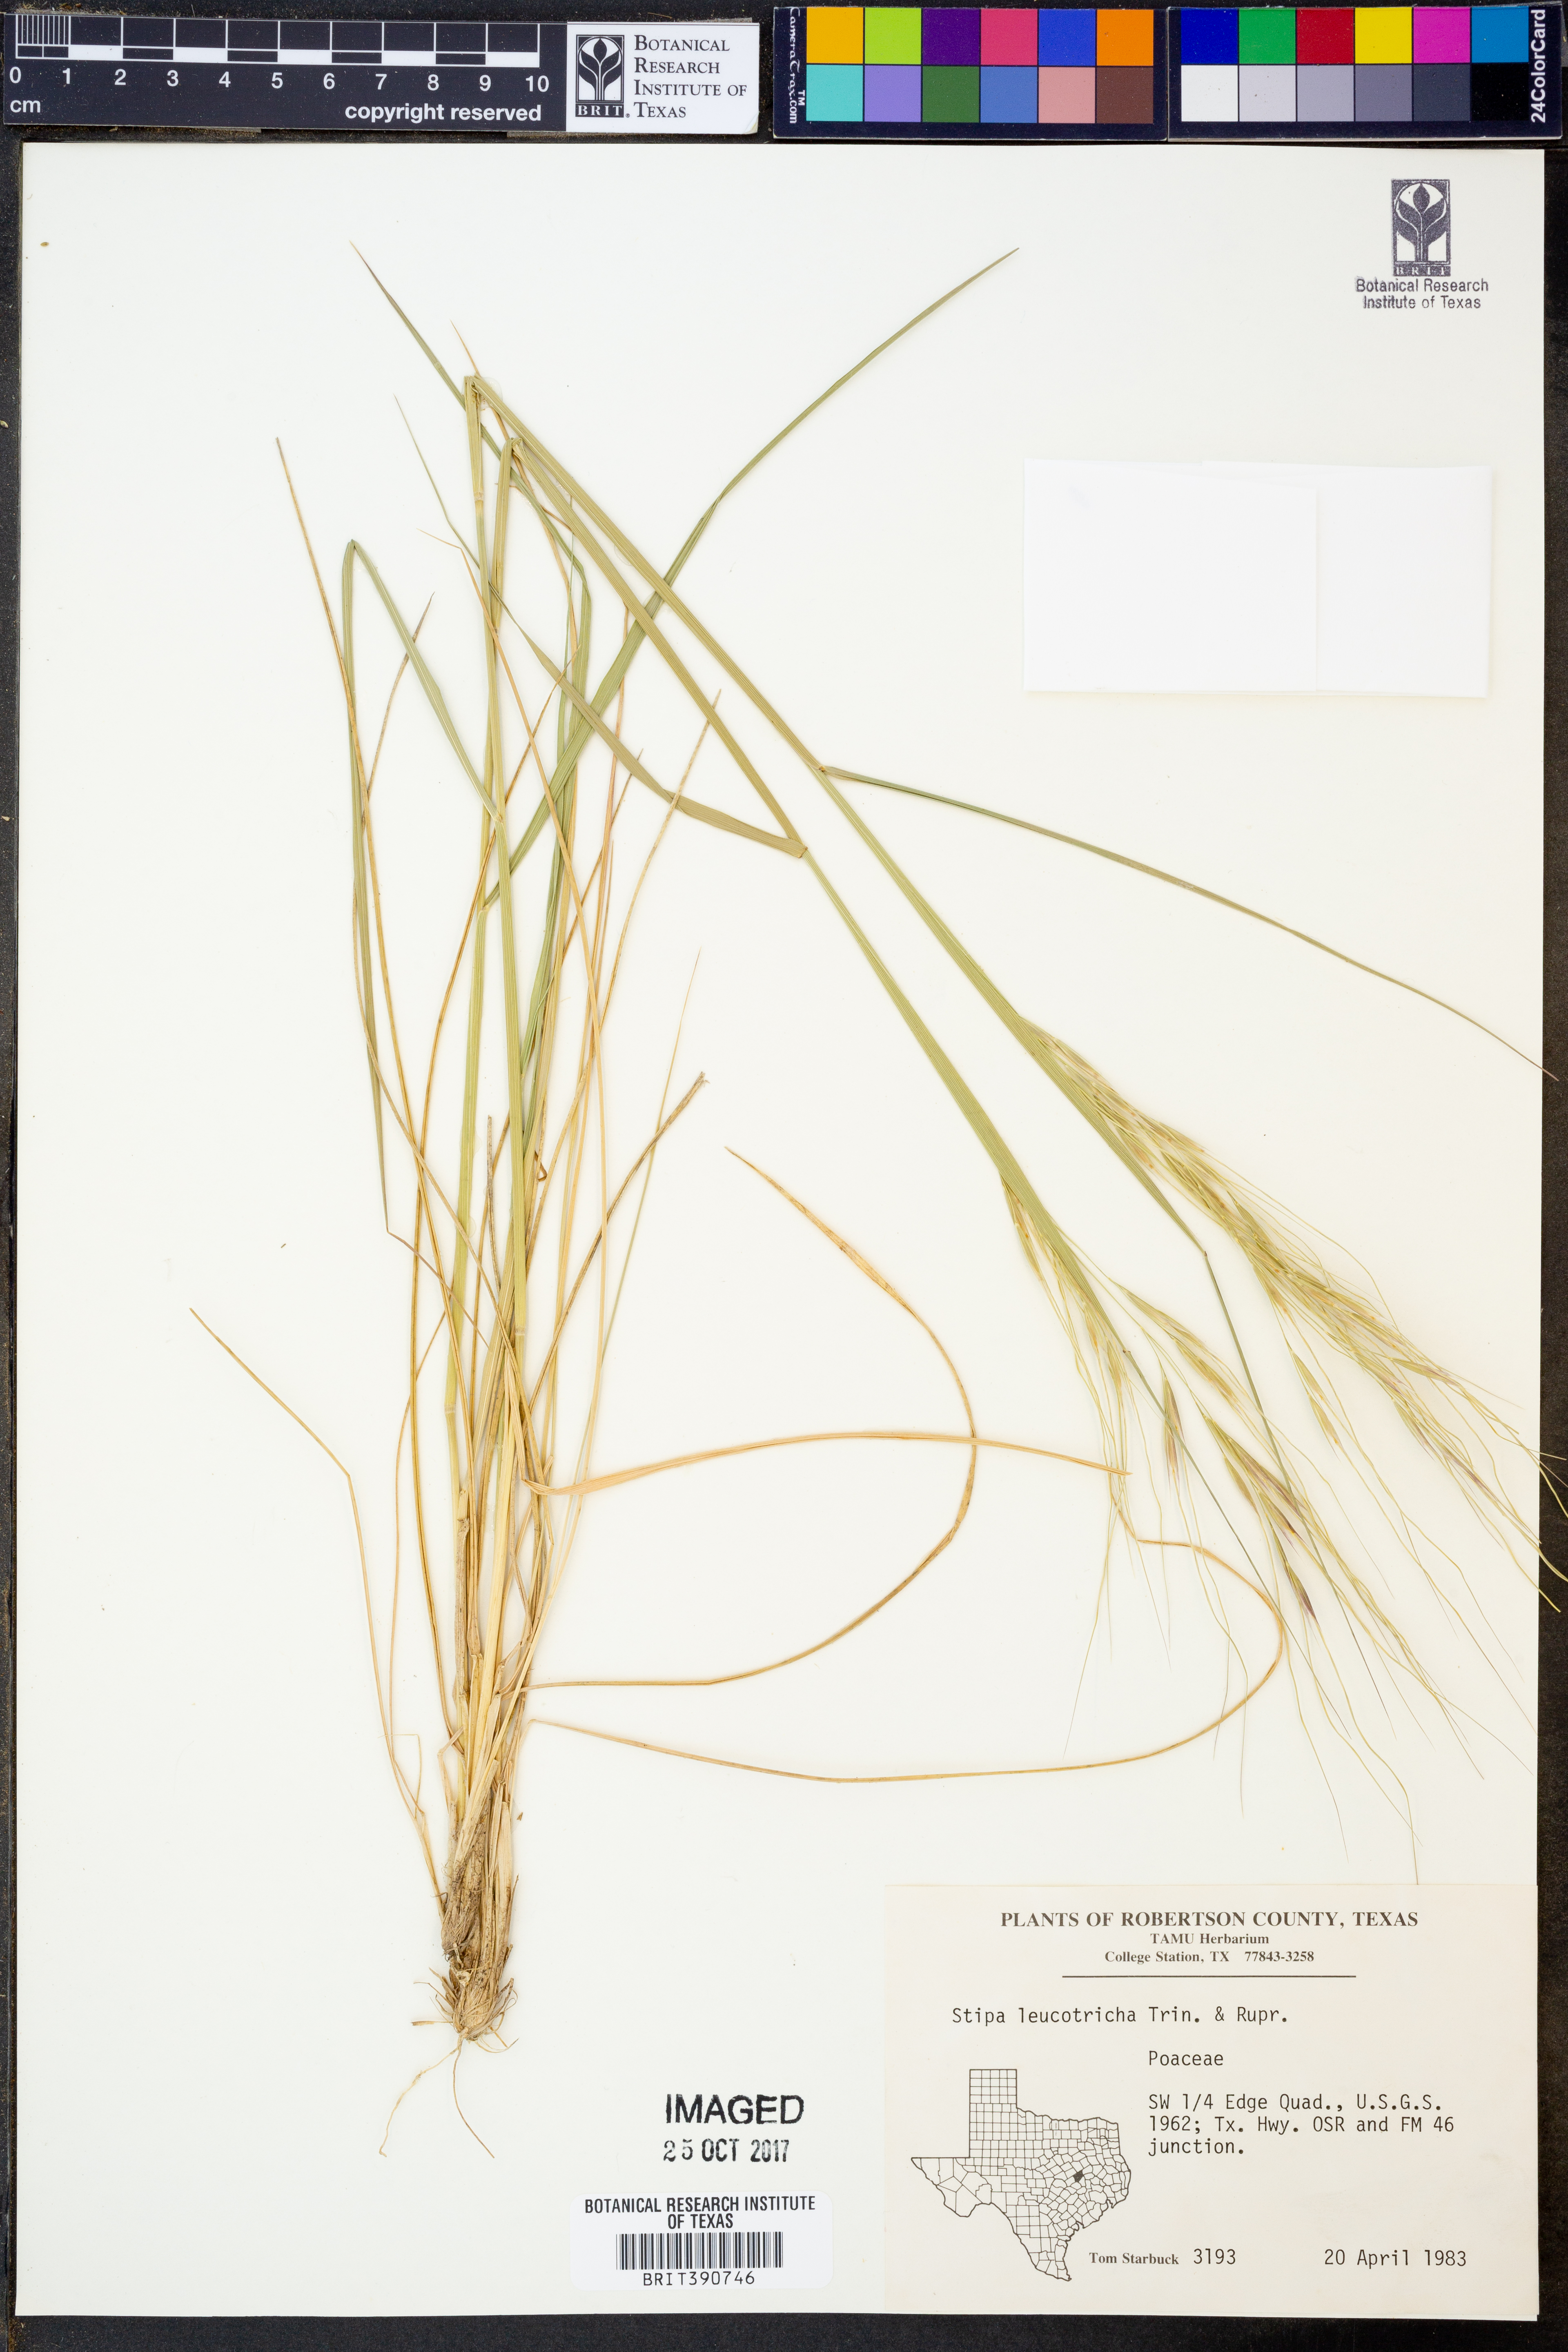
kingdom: Plantae
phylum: Tracheophyta
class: Liliopsida
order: Poales
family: Poaceae
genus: Nassella
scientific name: Nassella leucotricha
